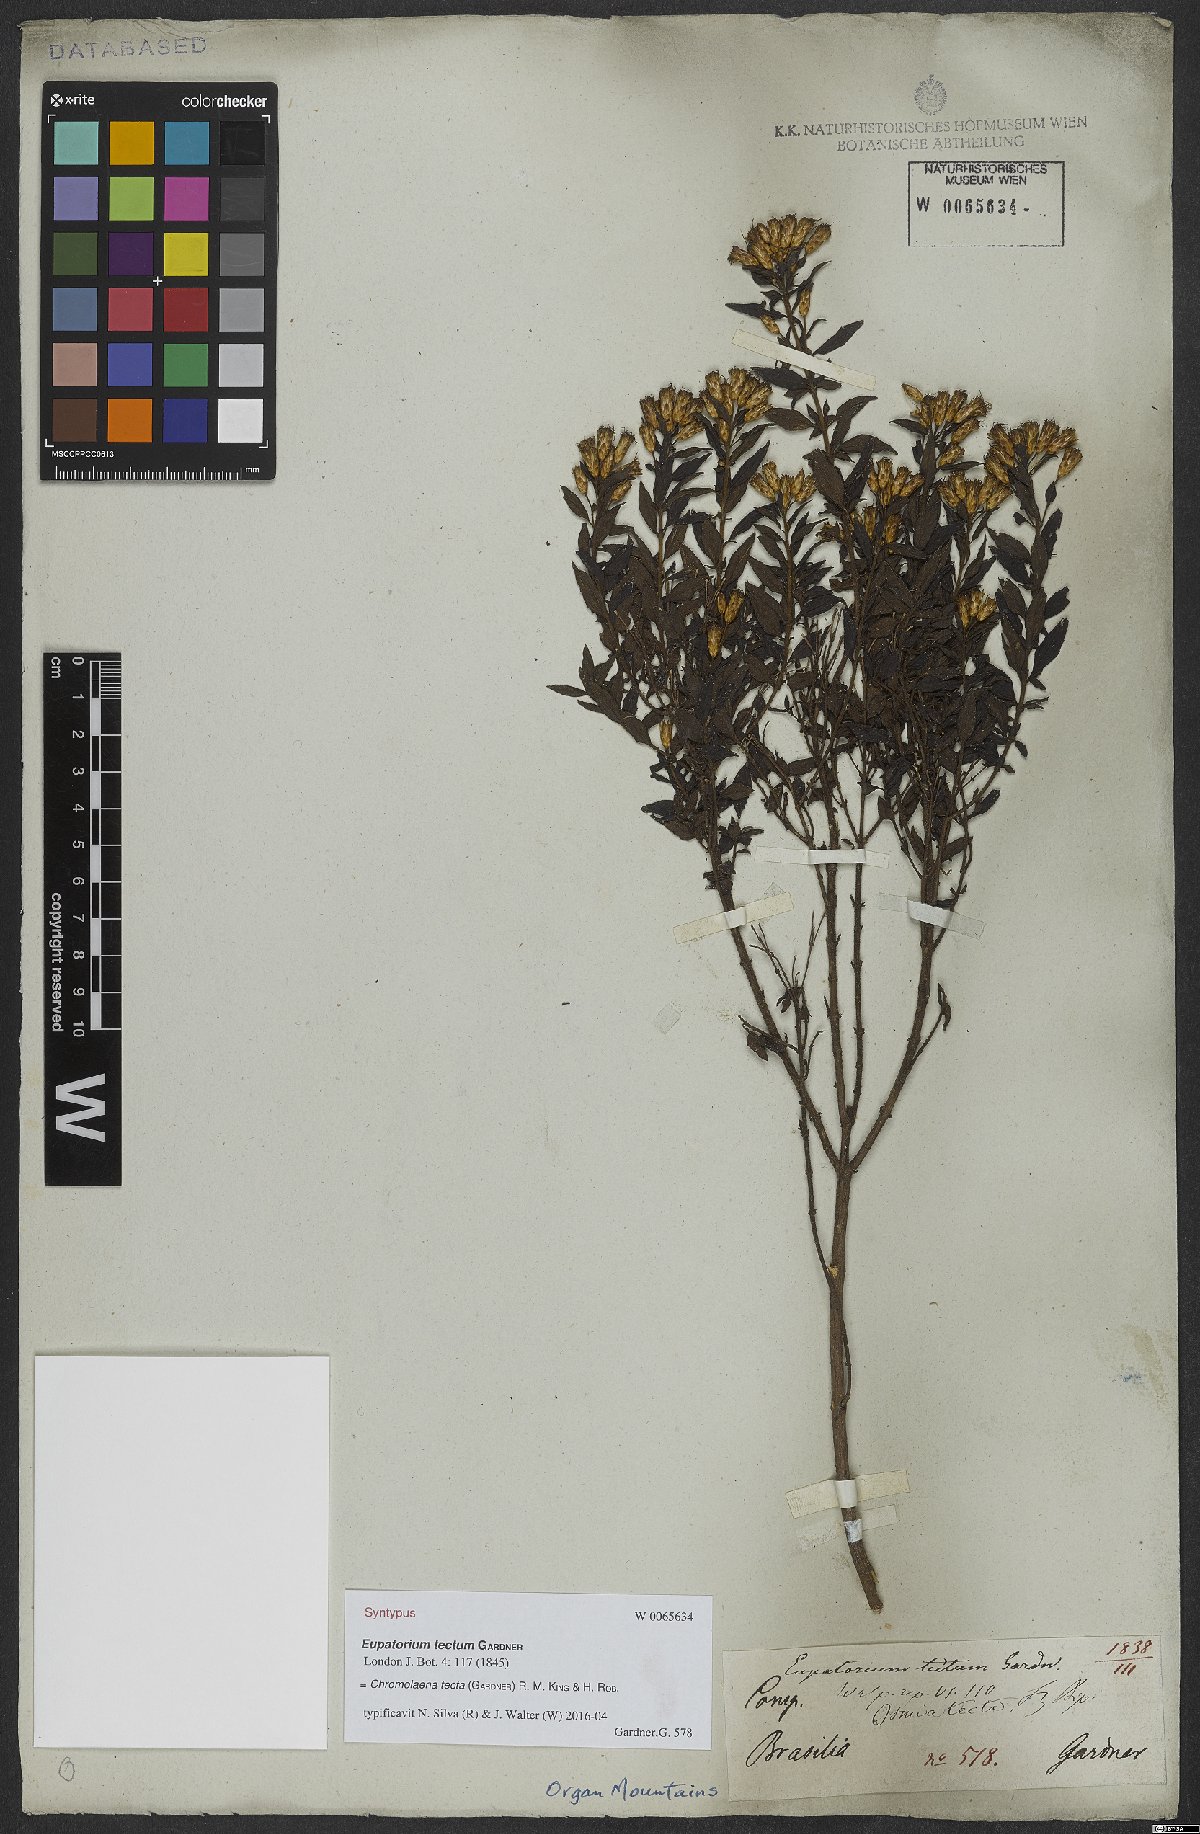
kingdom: Plantae
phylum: Tracheophyta
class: Magnoliopsida
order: Asterales
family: Asteraceae
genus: Chromolaena
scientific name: Chromolaena tecta
